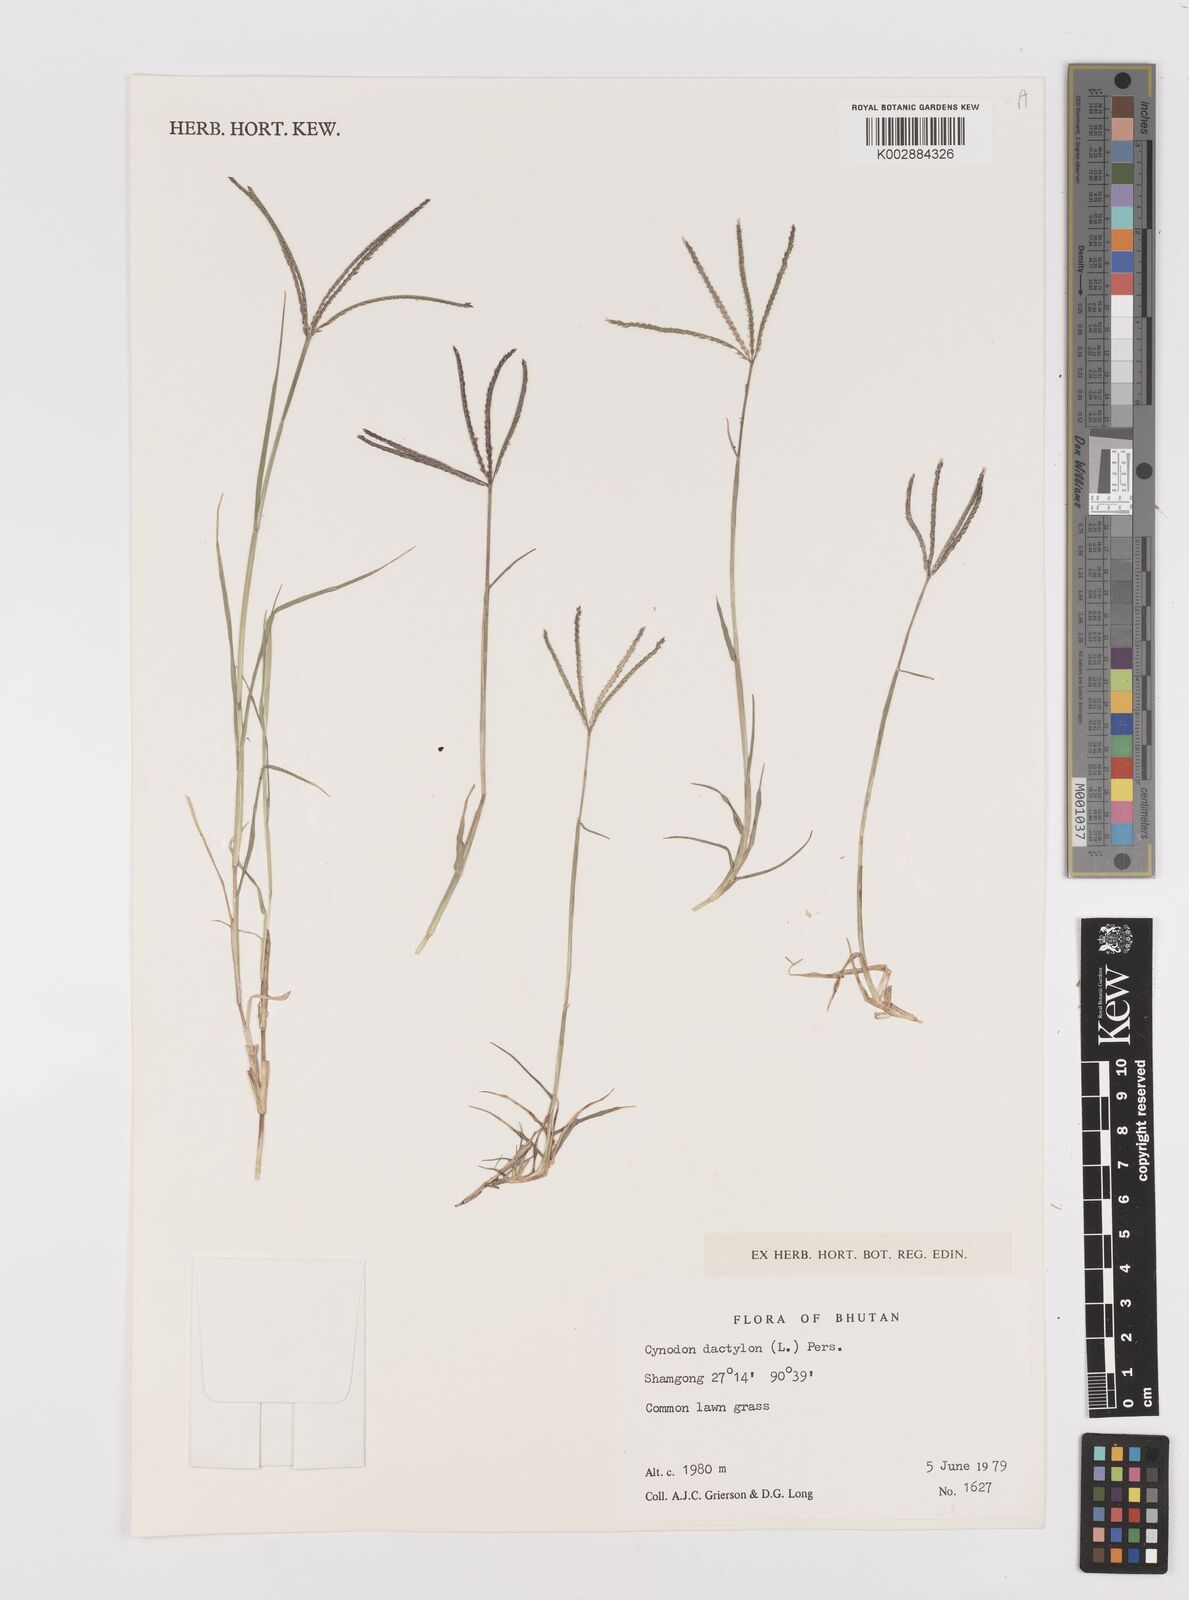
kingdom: Plantae
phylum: Tracheophyta
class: Liliopsida
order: Poales
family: Poaceae
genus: Cynodon
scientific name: Cynodon dactylon
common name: Bermuda grass
